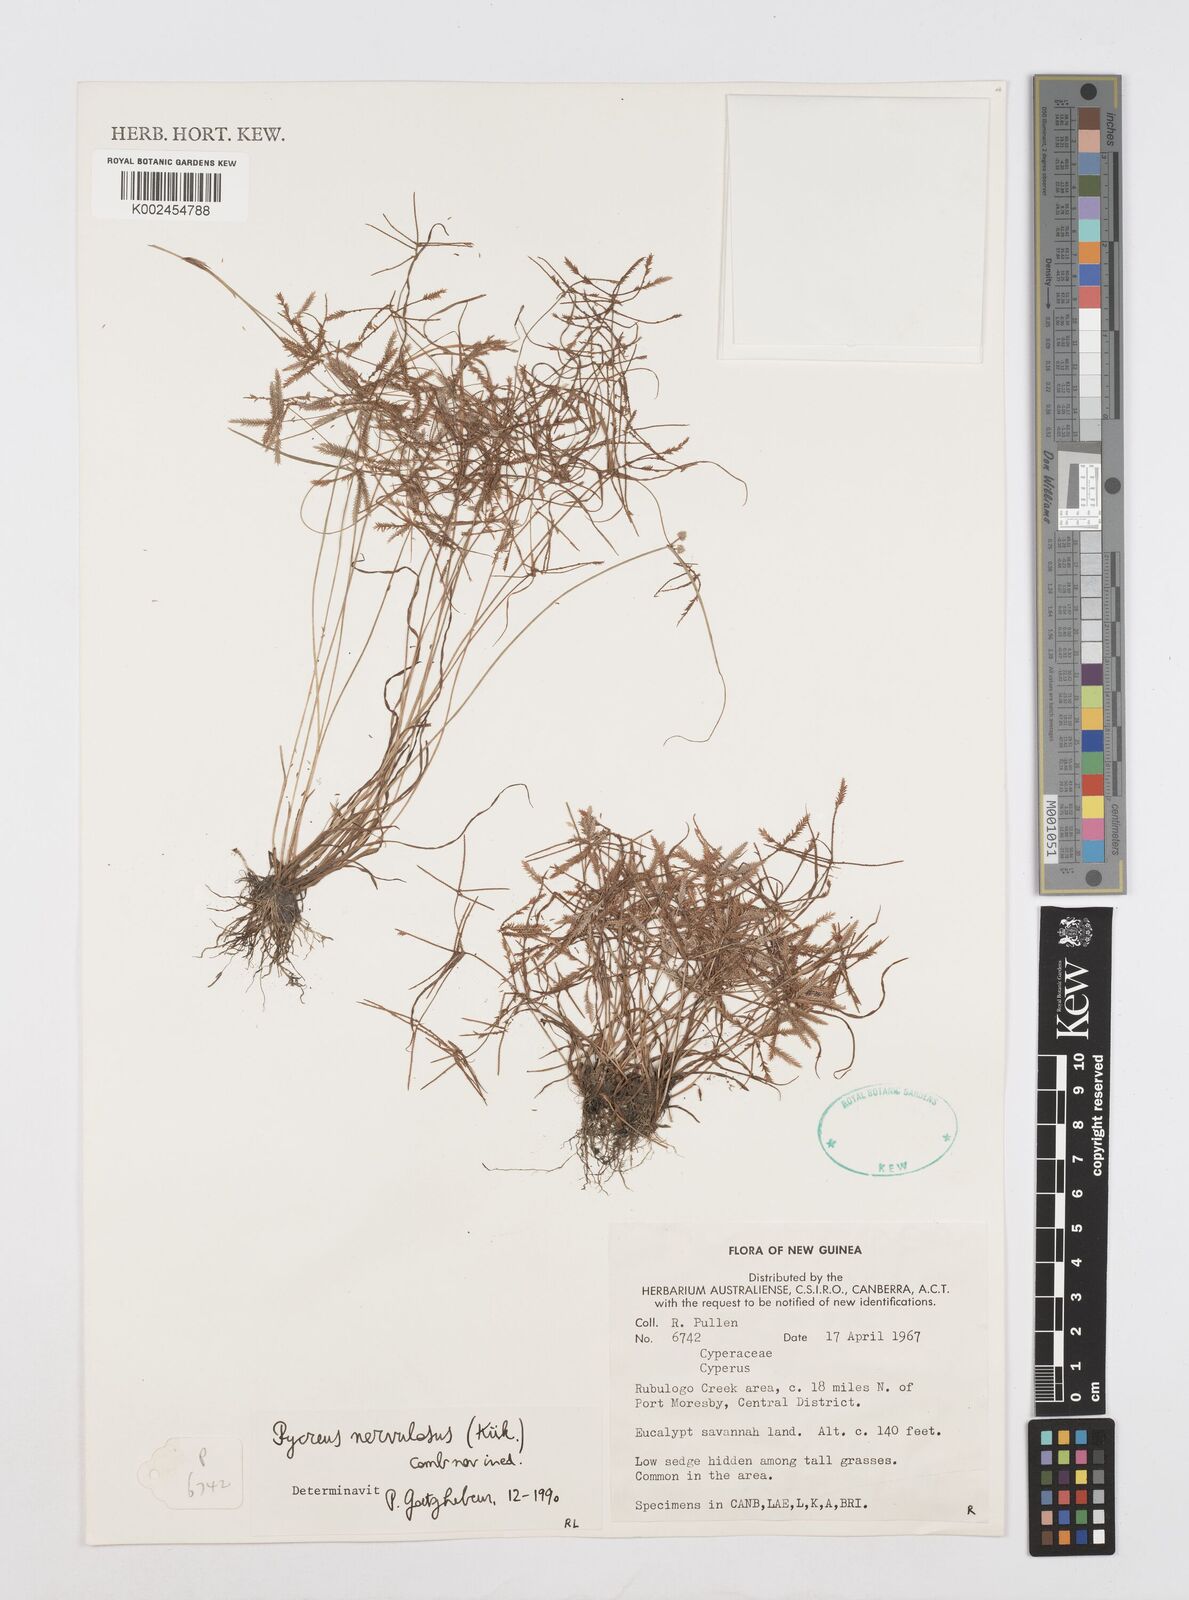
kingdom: Plantae
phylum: Tracheophyta
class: Liliopsida
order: Poales
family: Cyperaceae
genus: Cyperus
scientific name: Cyperus nervulosus
